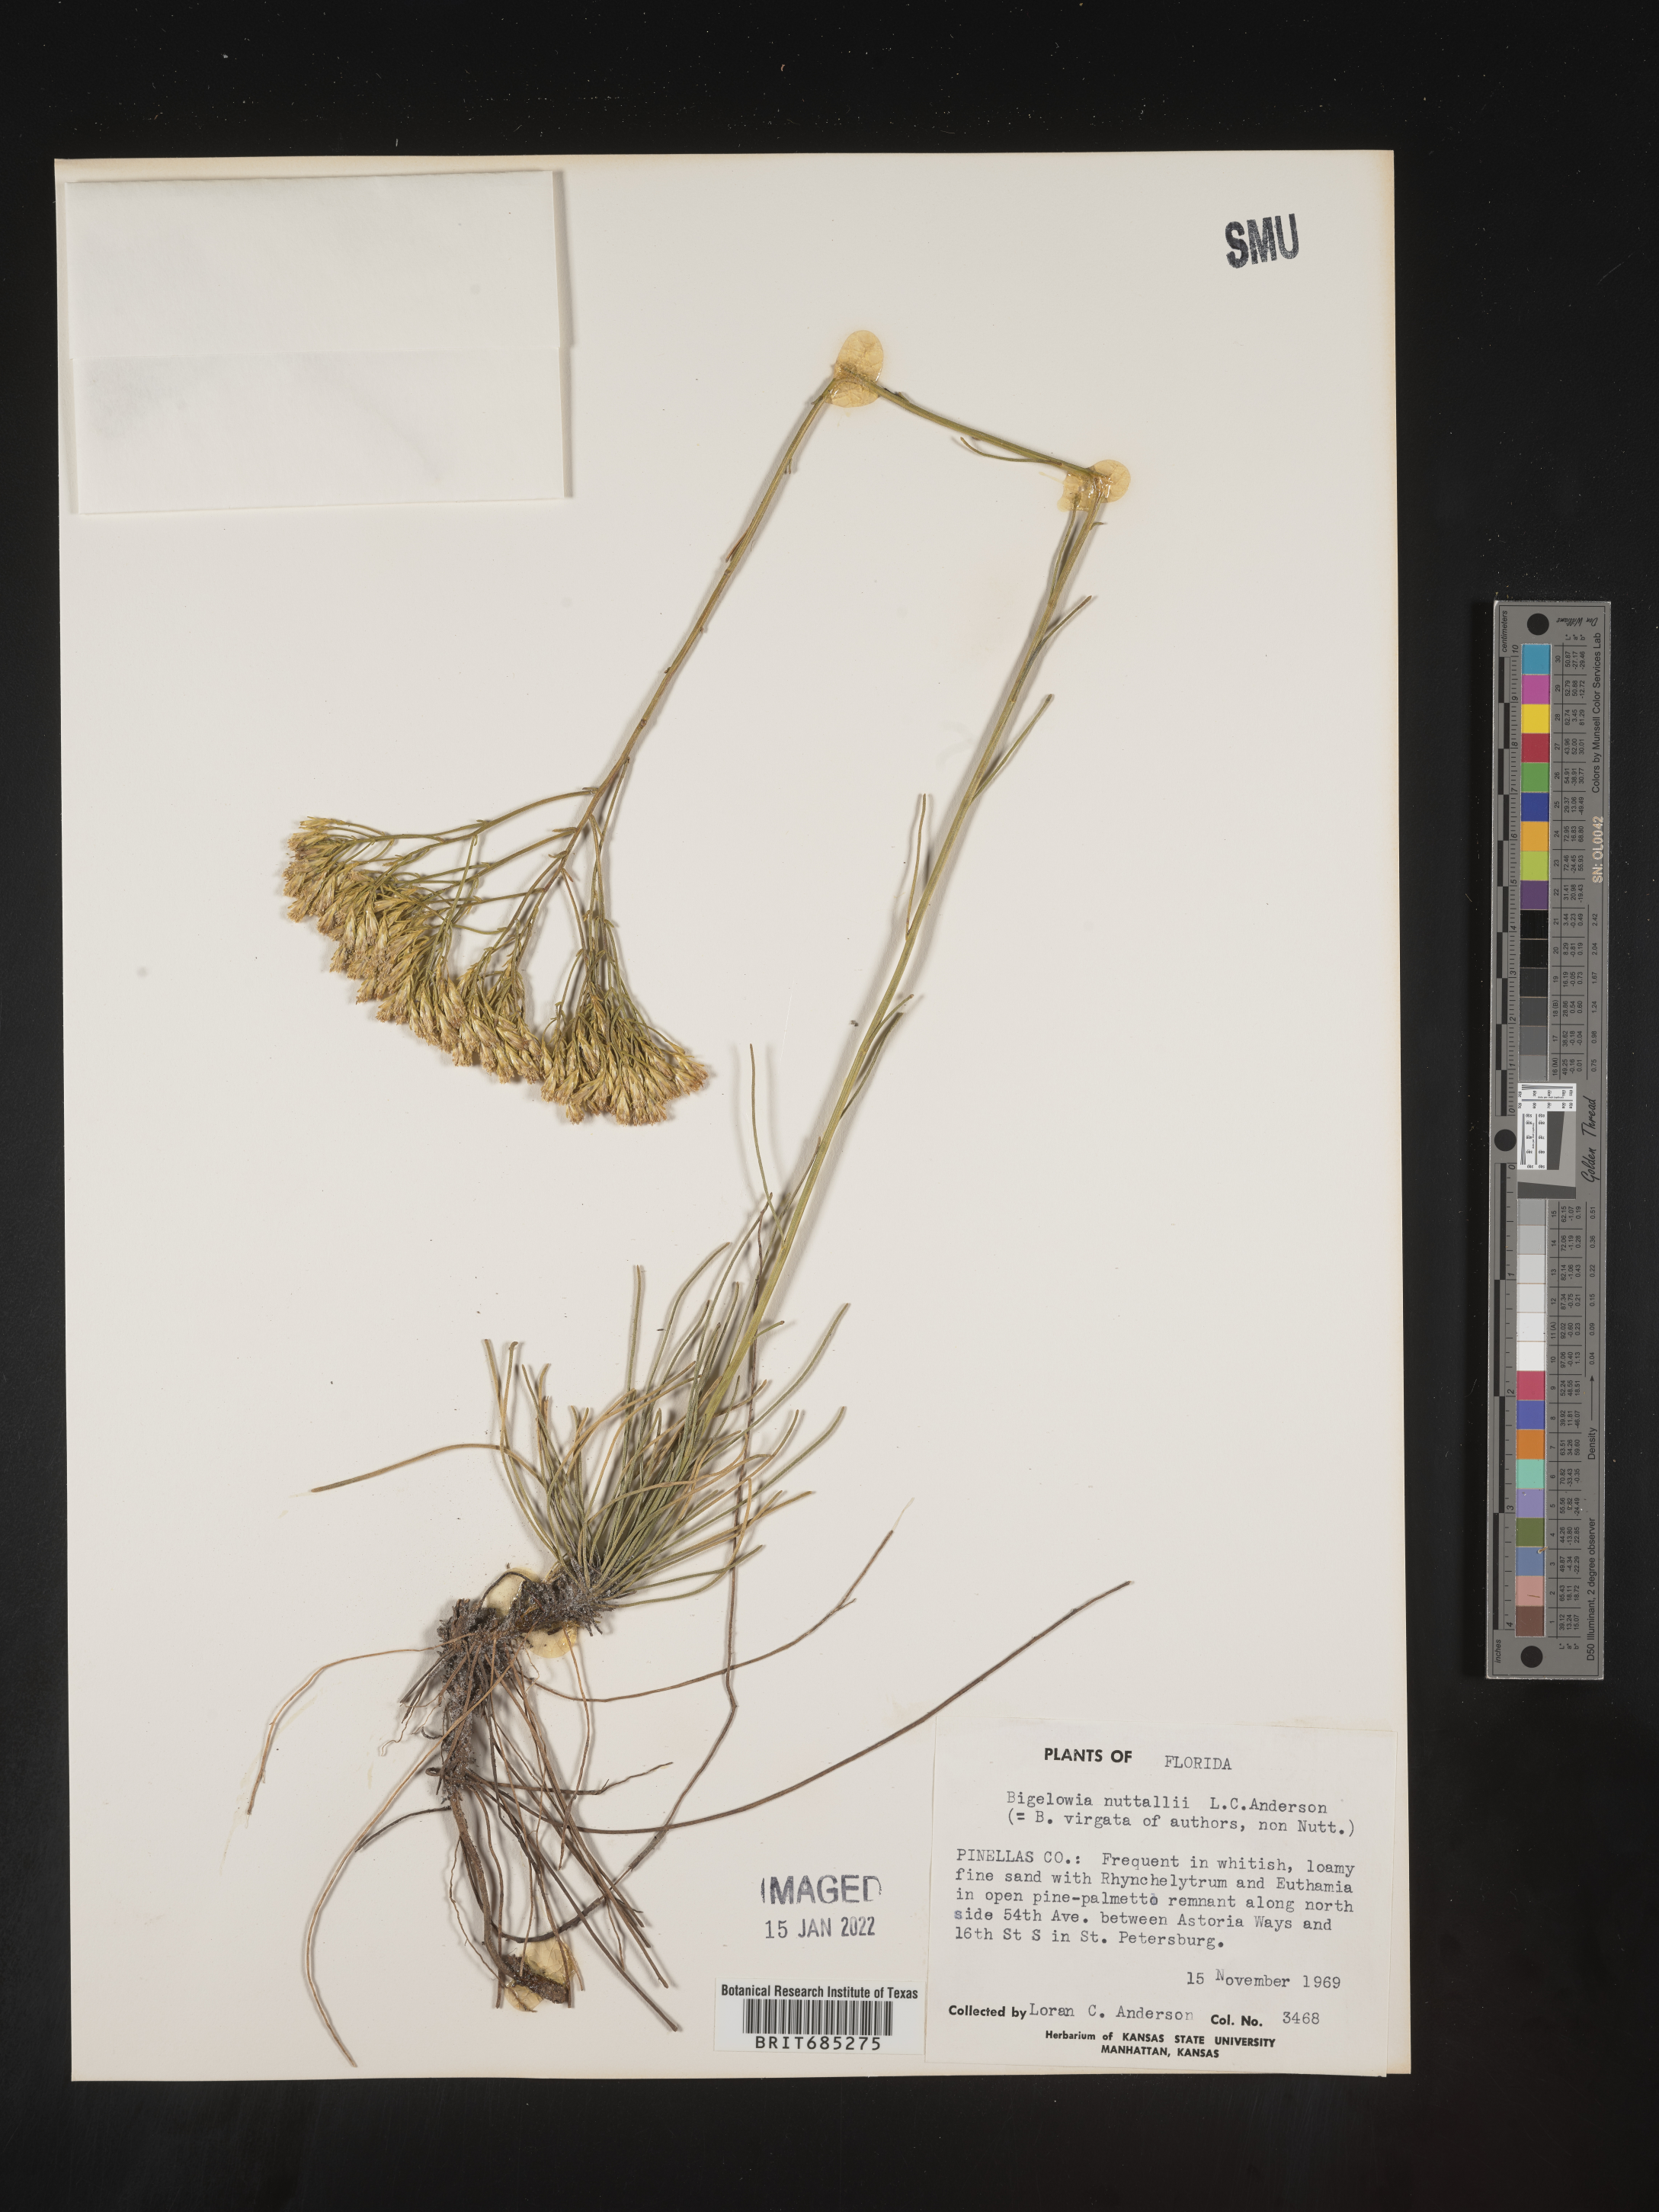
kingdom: Plantae
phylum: Tracheophyta
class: Magnoliopsida
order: Asterales
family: Asteraceae
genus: Bigelowia
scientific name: Bigelowia nudata
